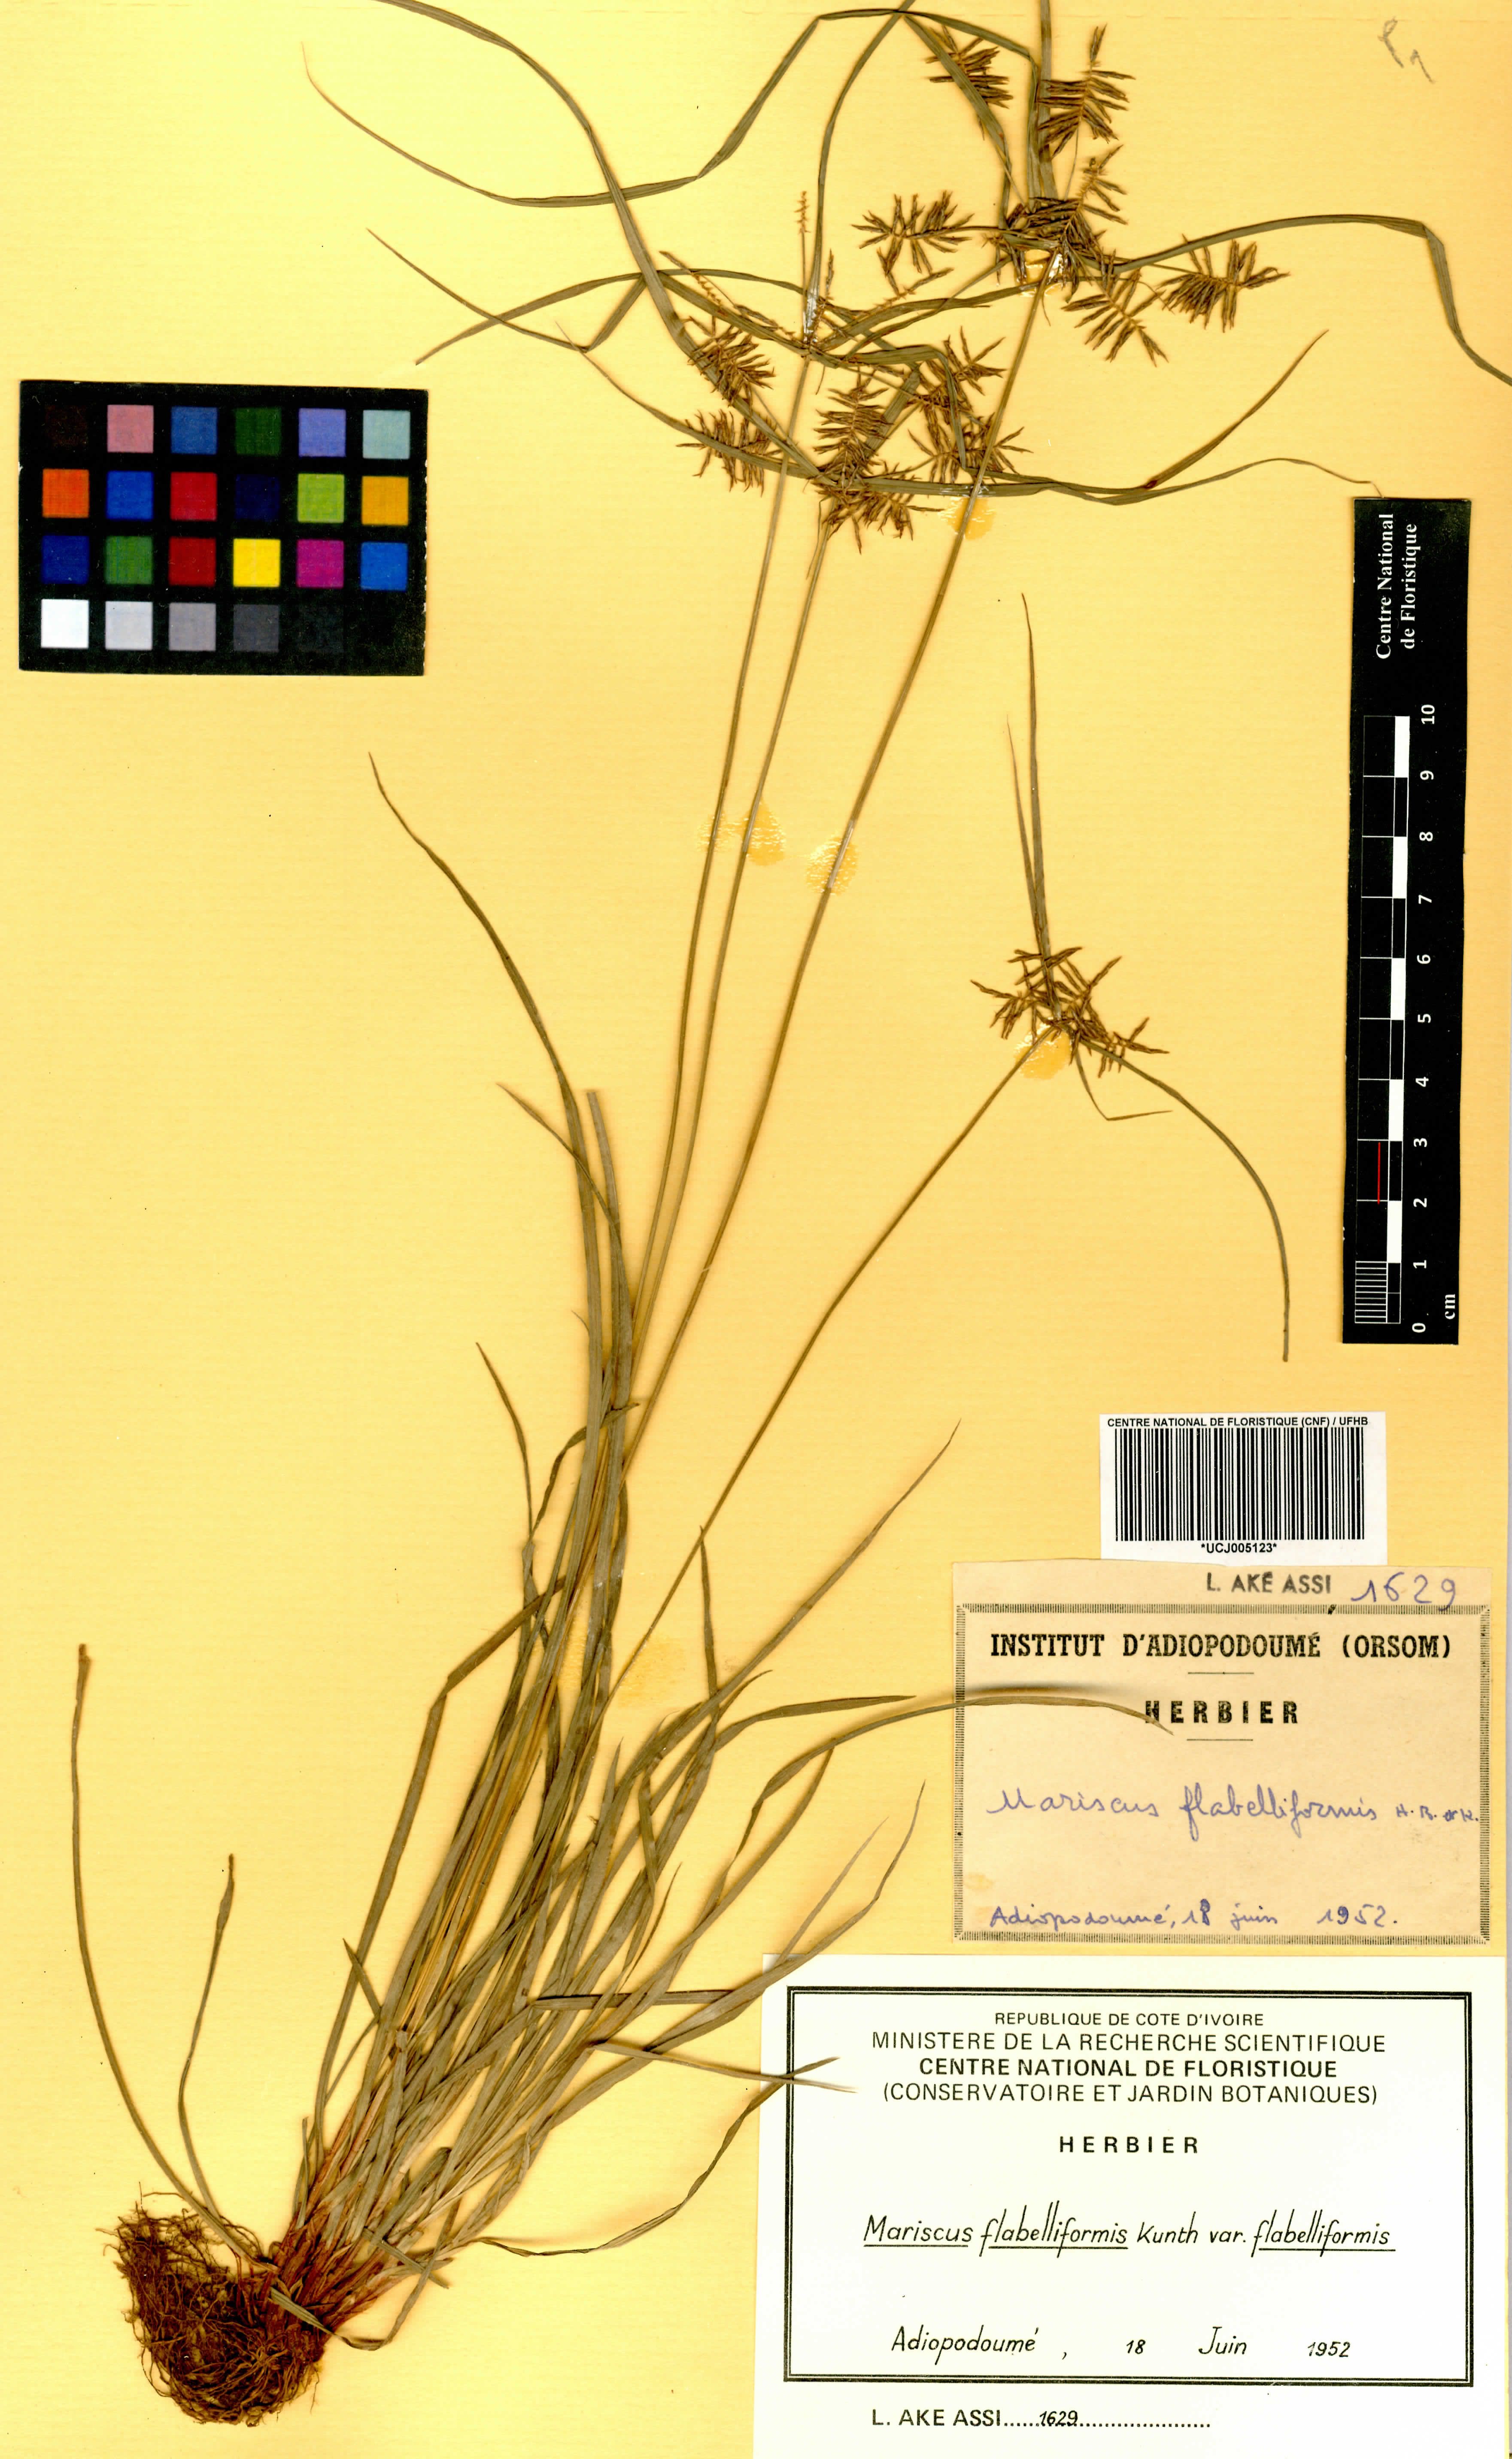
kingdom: Plantae
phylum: Tracheophyta
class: Liliopsida
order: Poales
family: Cyperaceae
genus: Cyperus
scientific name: Cyperus tenuis
